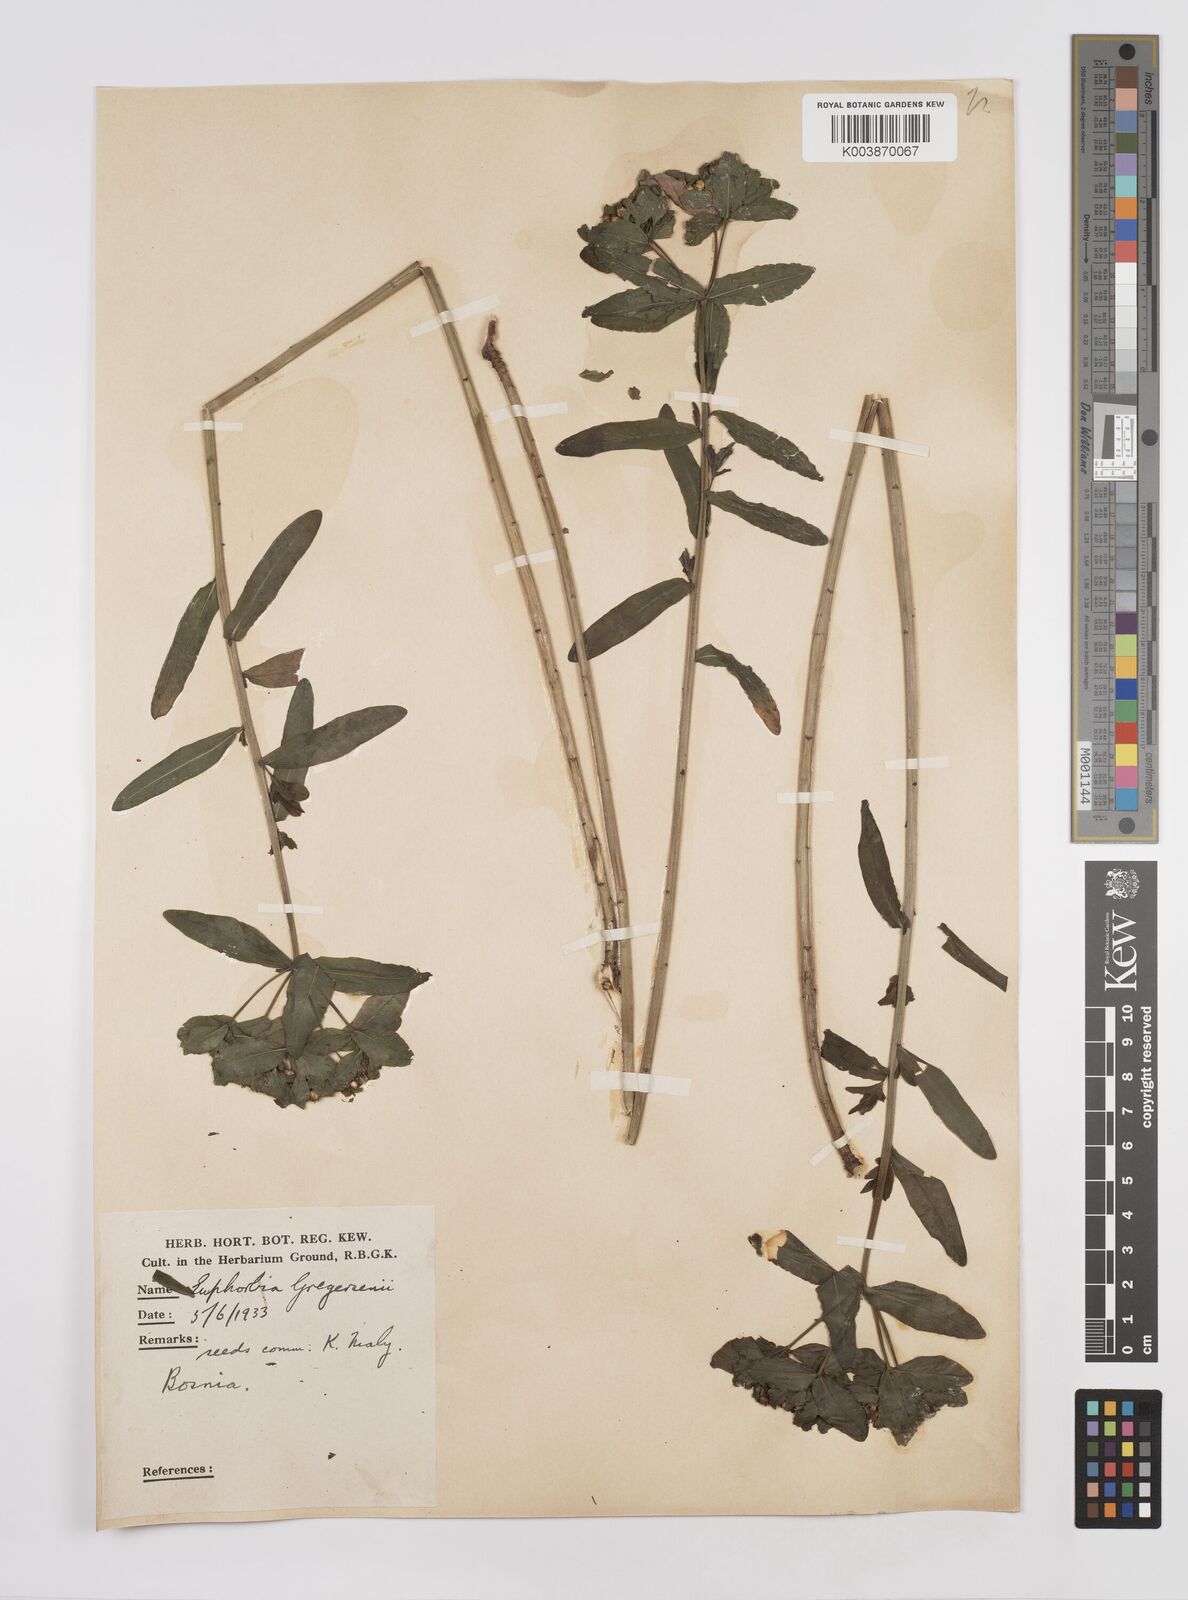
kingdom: Plantae
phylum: Tracheophyta
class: Magnoliopsida
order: Malpighiales
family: Euphorbiaceae
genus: Euphorbia
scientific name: Euphorbia gregersenii
